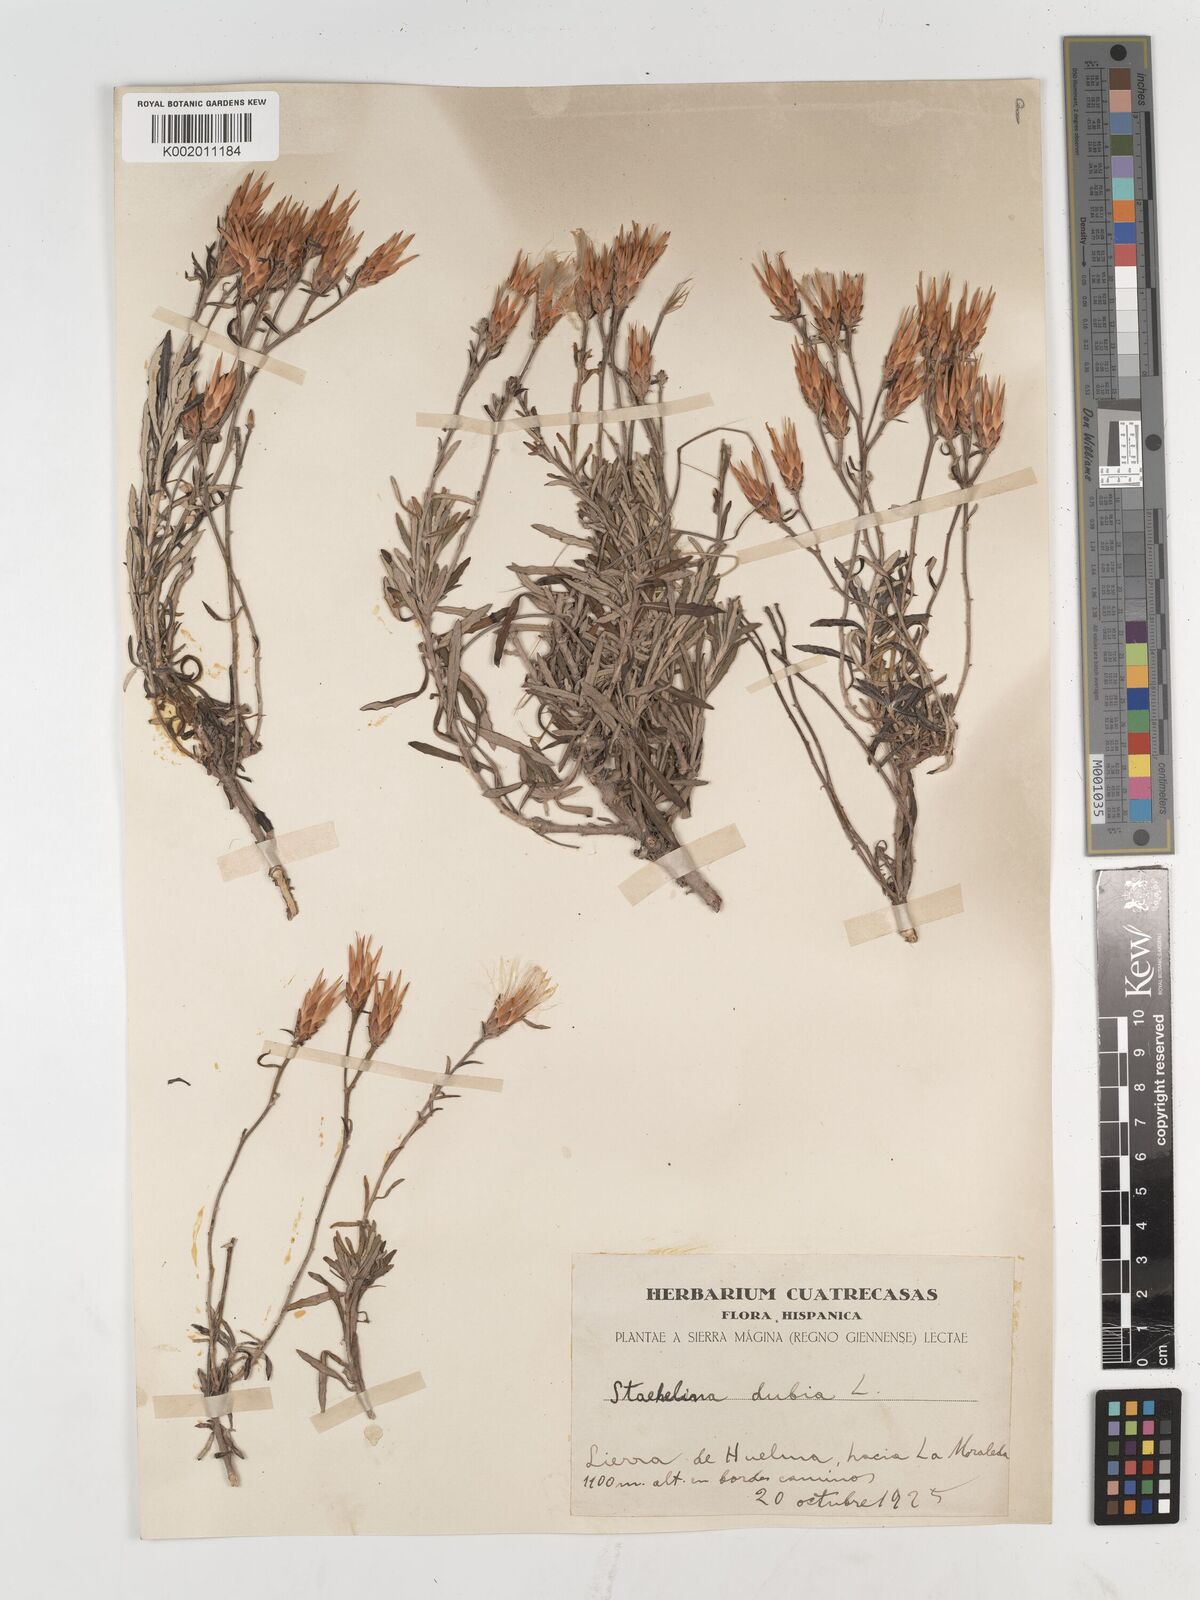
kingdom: Plantae
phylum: Tracheophyta
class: Magnoliopsida
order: Asterales
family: Asteraceae
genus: Staehelina
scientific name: Staehelina dubia
